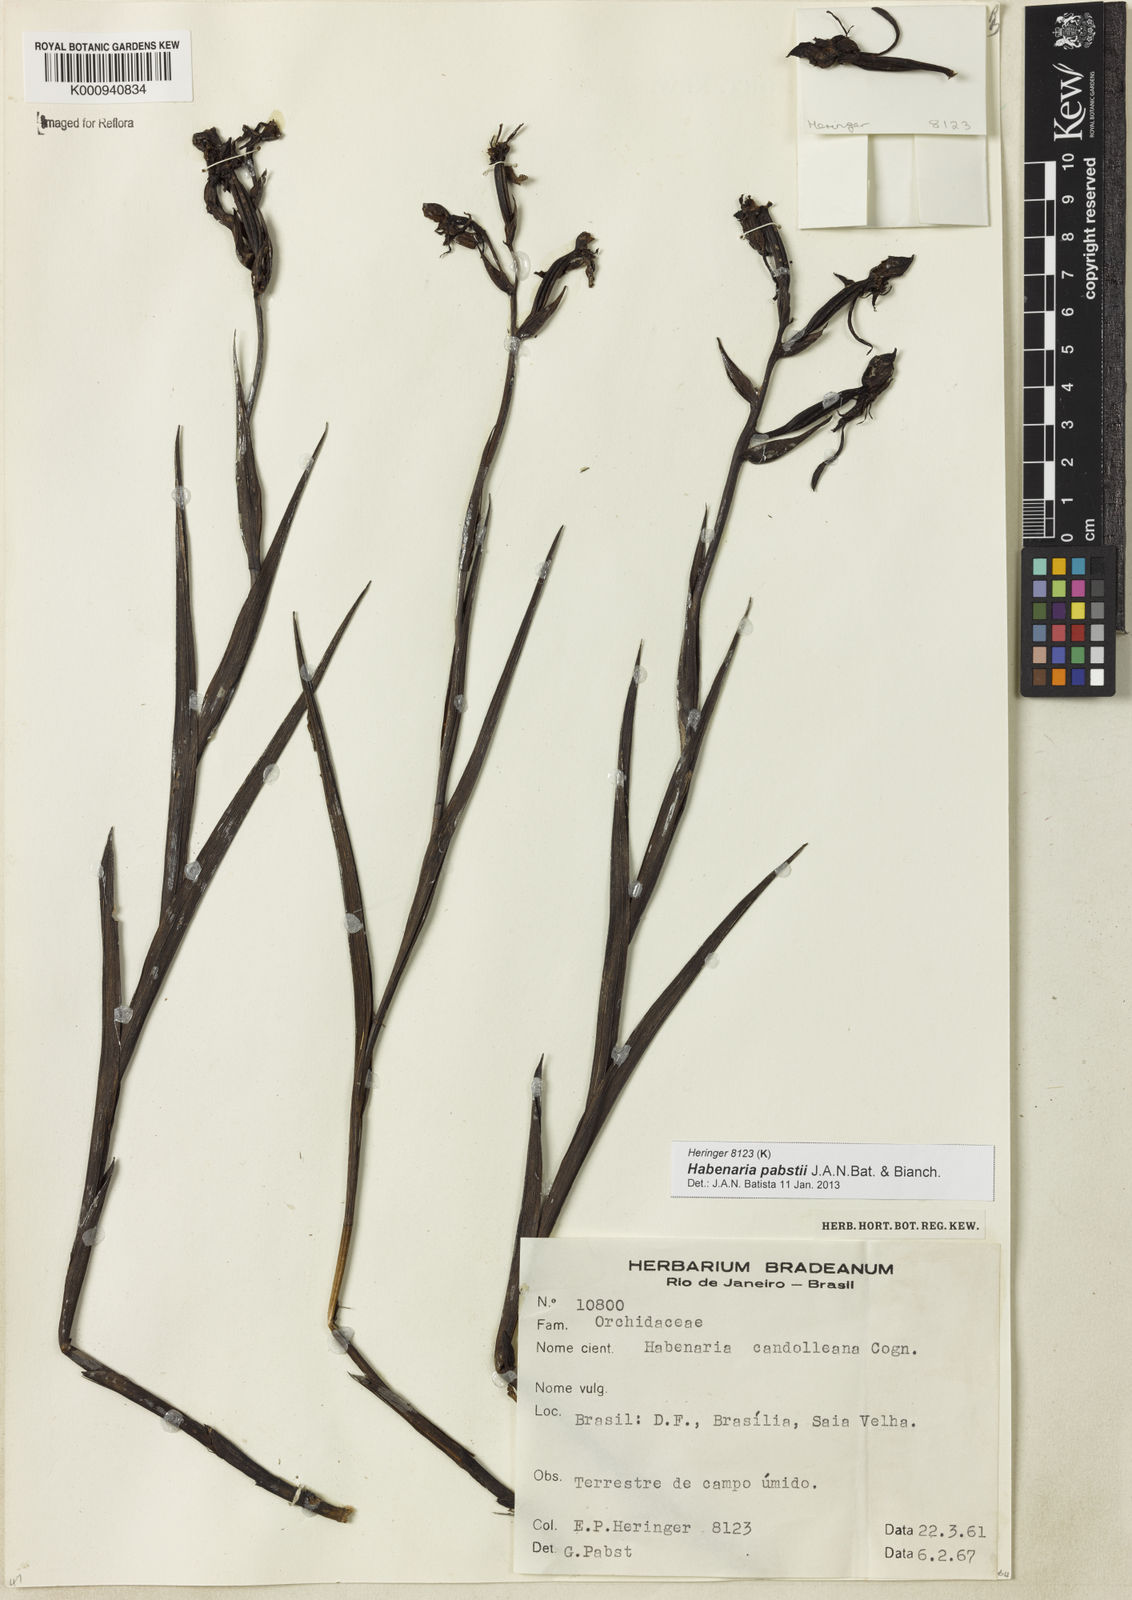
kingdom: Plantae
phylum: Tracheophyta
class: Liliopsida
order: Asparagales
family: Orchidaceae
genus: Habenaria
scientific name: Habenaria pabstii
